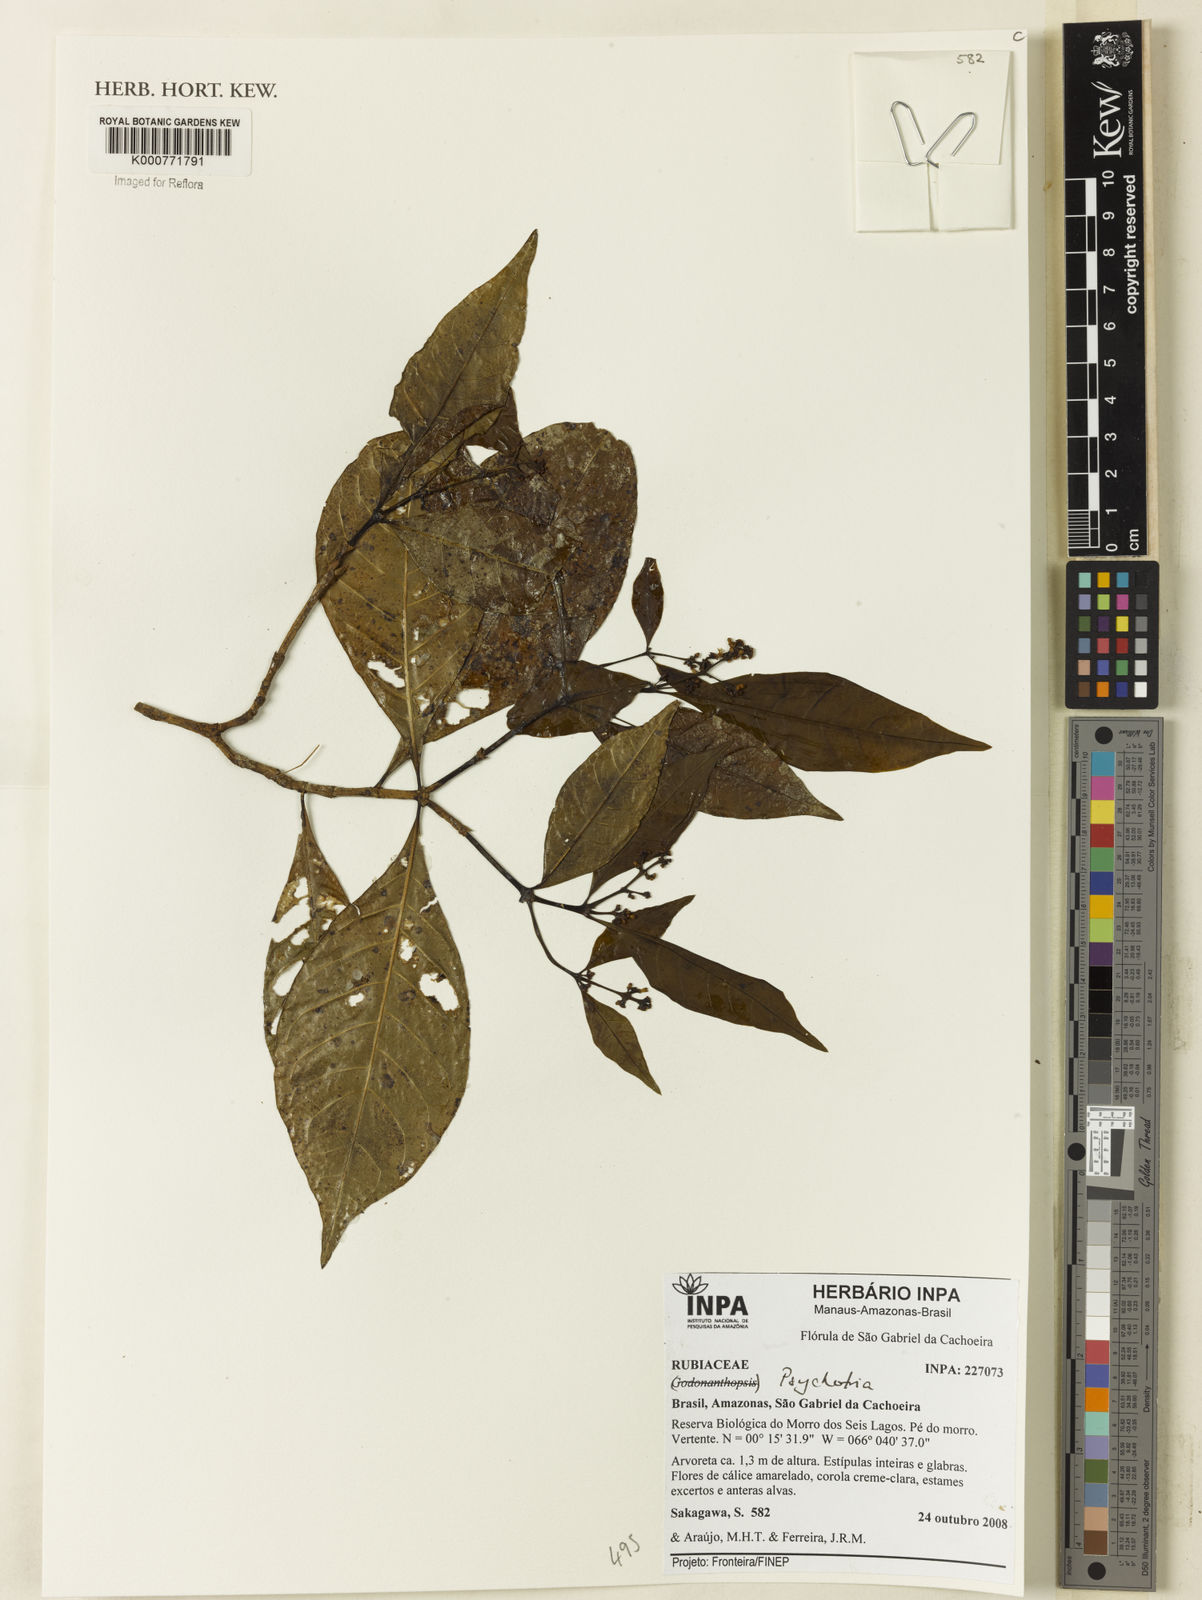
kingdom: Plantae
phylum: Tracheophyta
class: Magnoliopsida
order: Gentianales
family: Rubiaceae
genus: Psychotria
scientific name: Psychotria
